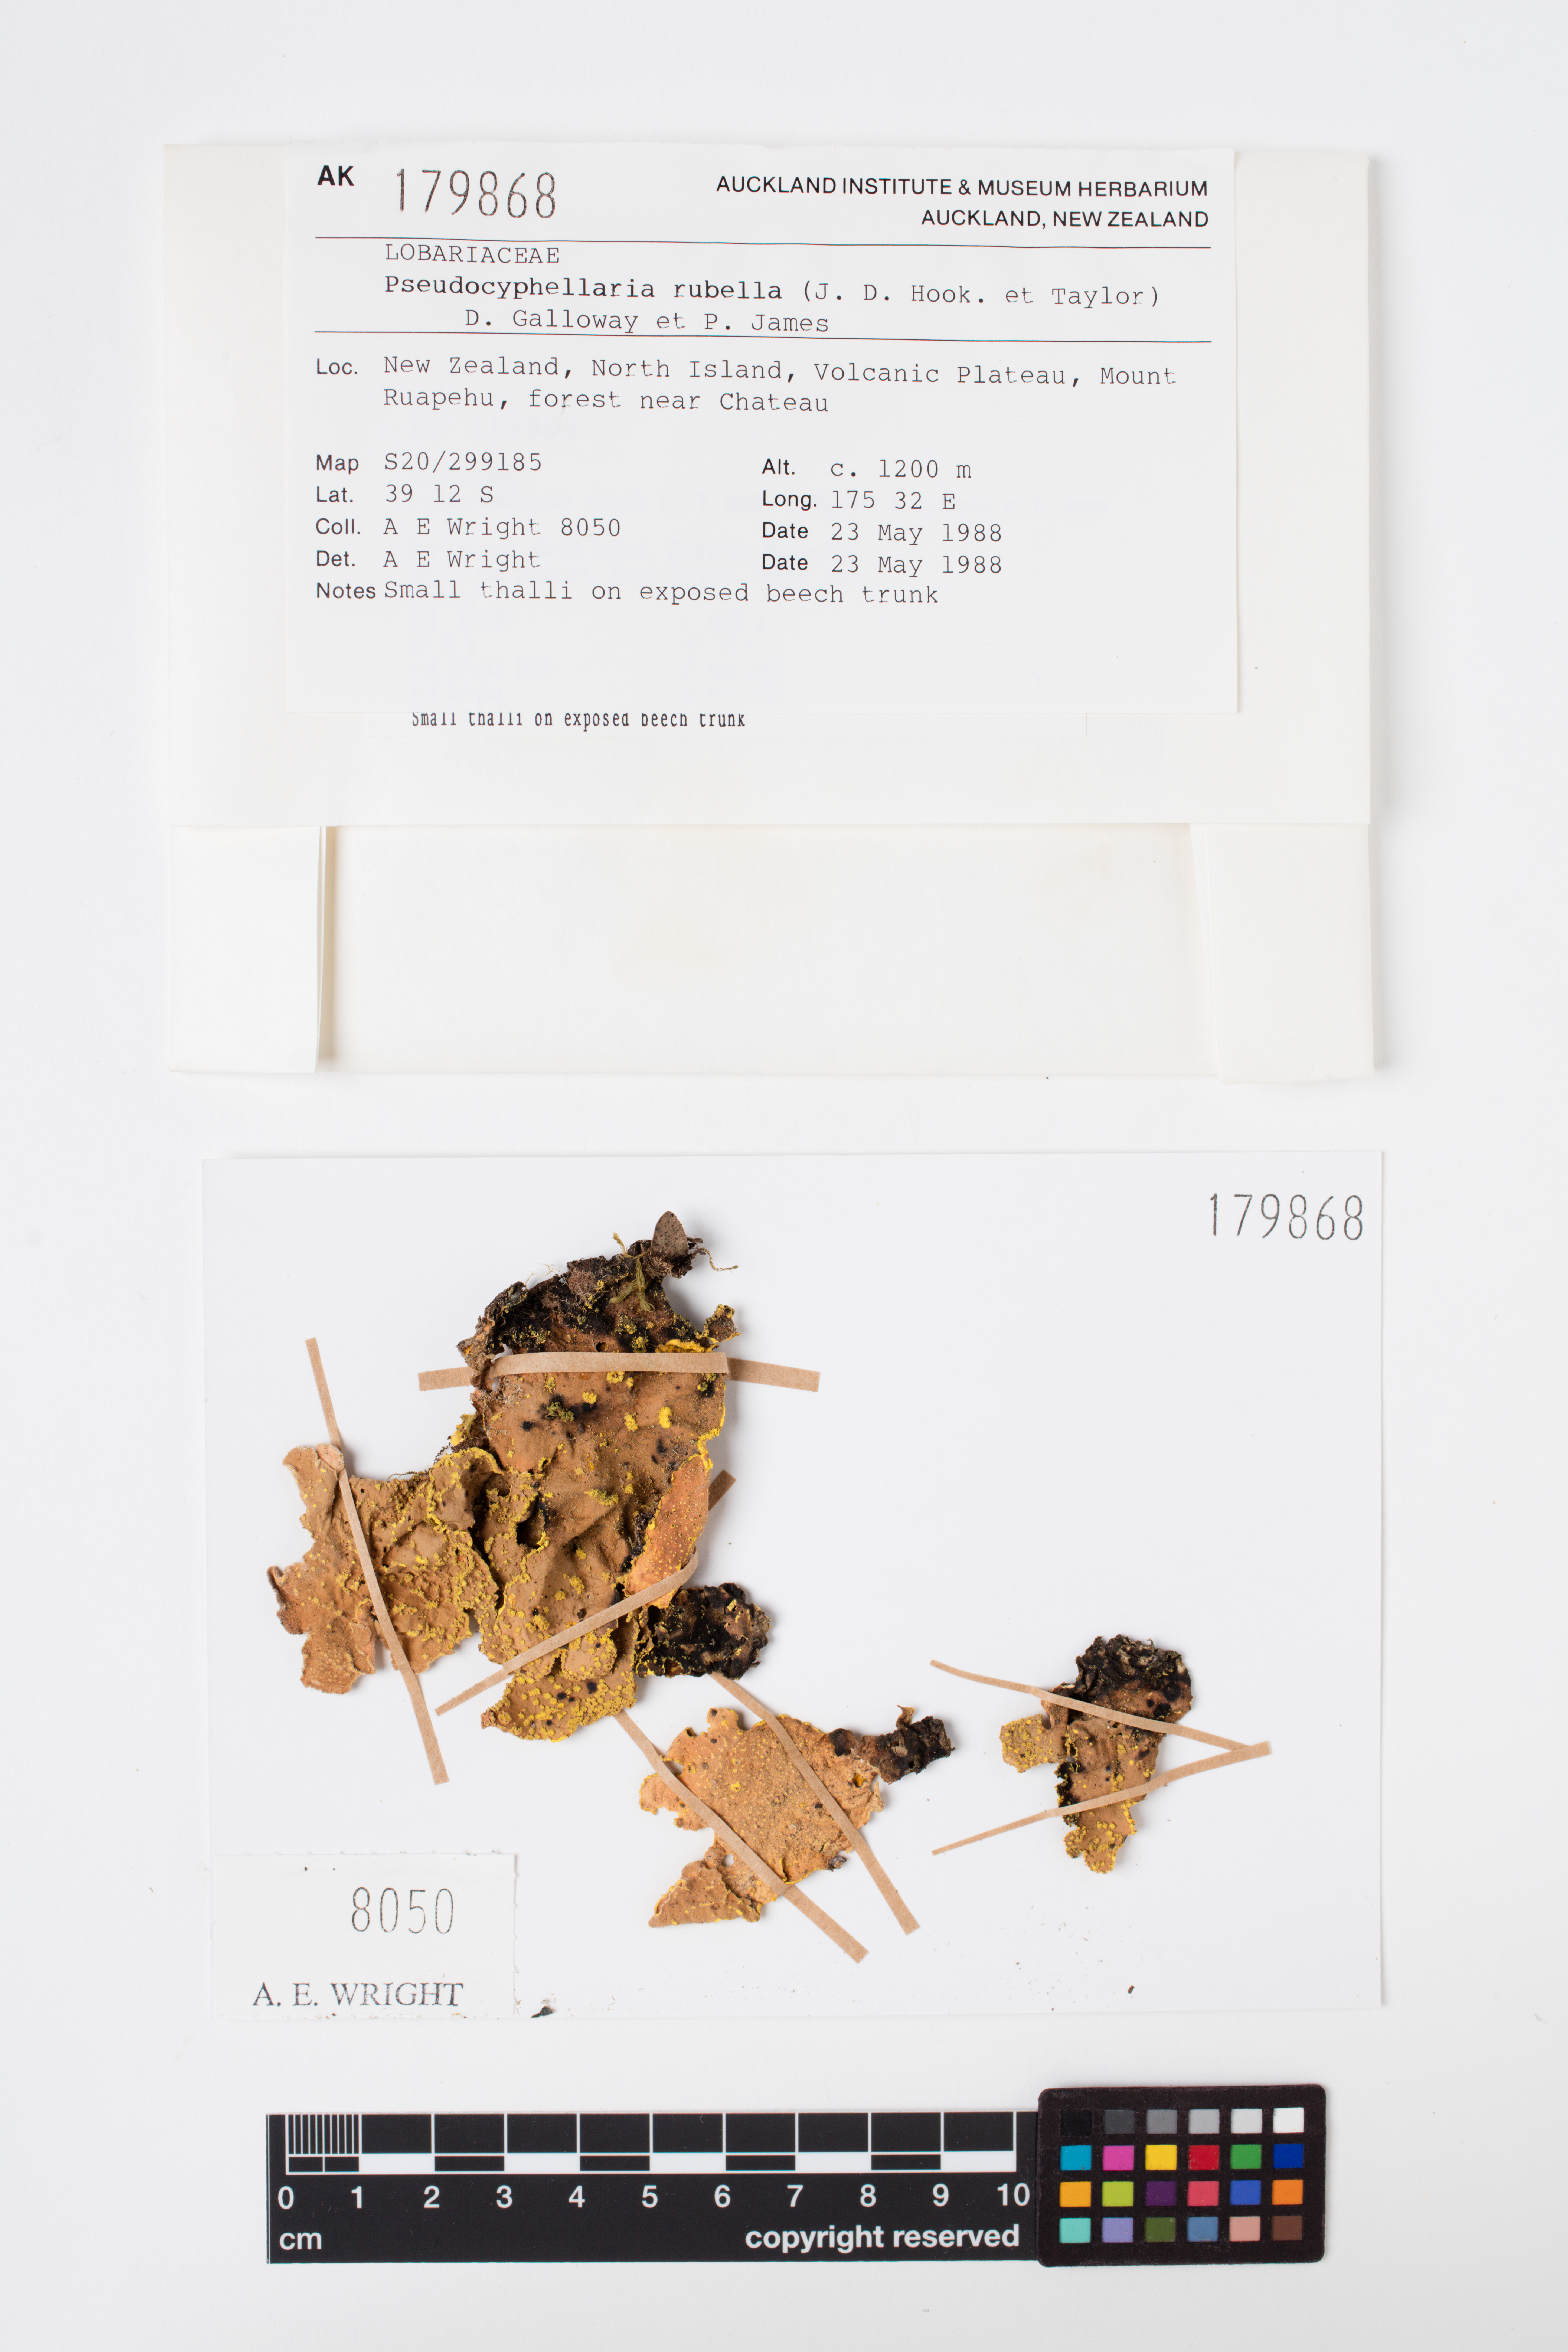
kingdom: Fungi
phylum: Ascomycota
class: Lecanoromycetes
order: Peltigerales
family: Lobariaceae
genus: Pseudocyphellaria
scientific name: Pseudocyphellaria rubella
